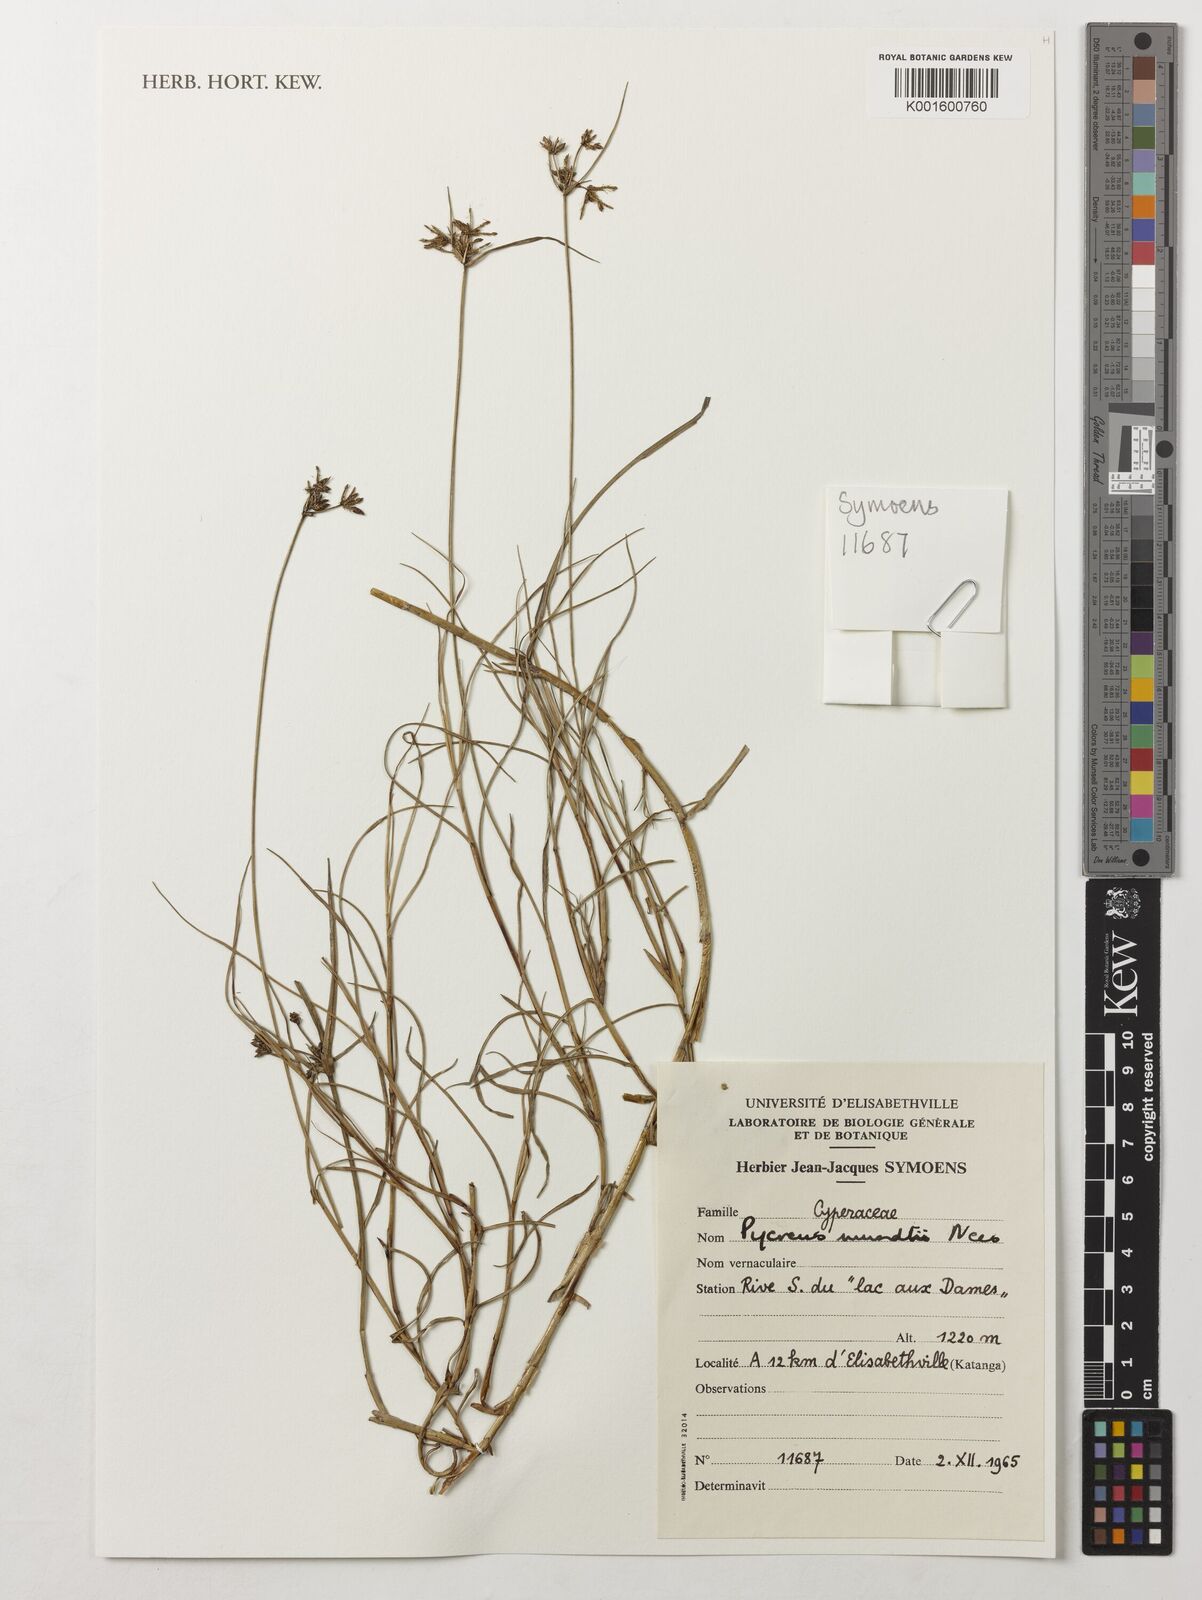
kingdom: Plantae
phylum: Tracheophyta
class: Liliopsida
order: Poales
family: Cyperaceae
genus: Cyperus
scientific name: Cyperus mundii
